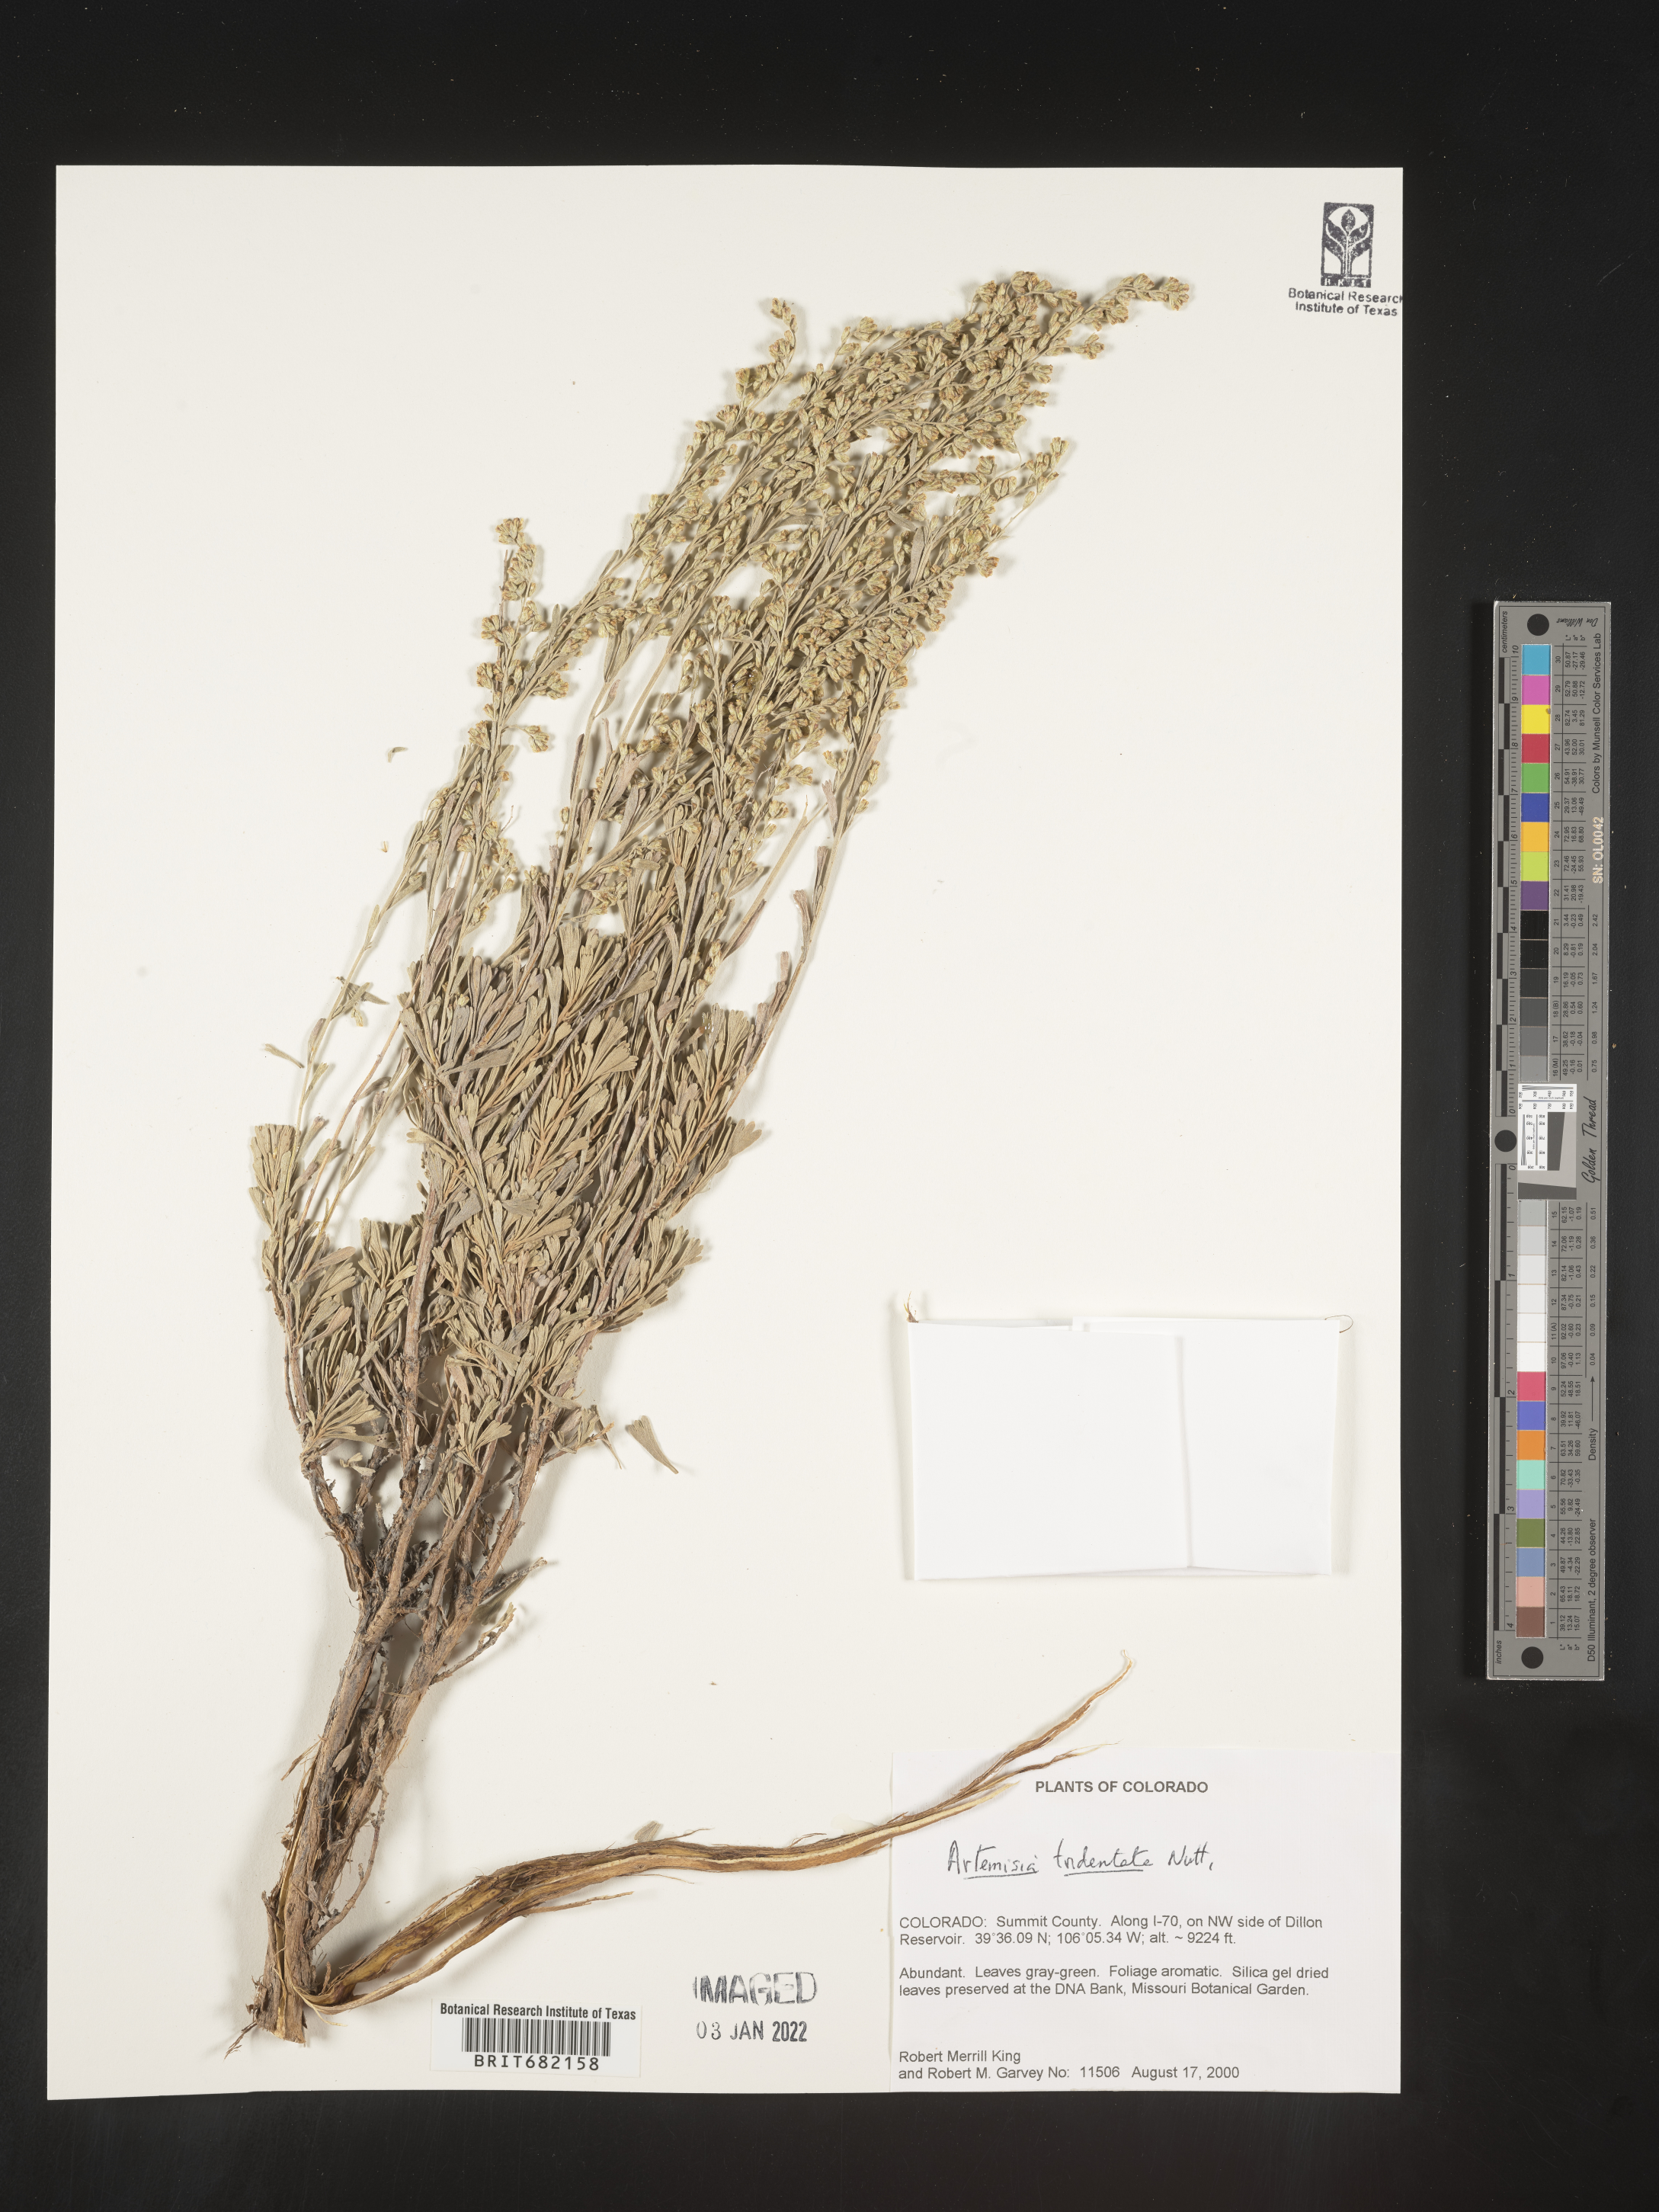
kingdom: Plantae
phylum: Tracheophyta
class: Magnoliopsida
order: Asterales
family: Asteraceae
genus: Artemisia
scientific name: Artemisia tridentata
